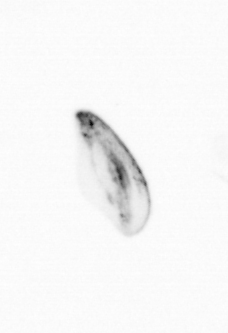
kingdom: Chromista
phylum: Ochrophyta
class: Bacillariophyceae
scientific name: Bacillariophyceae
